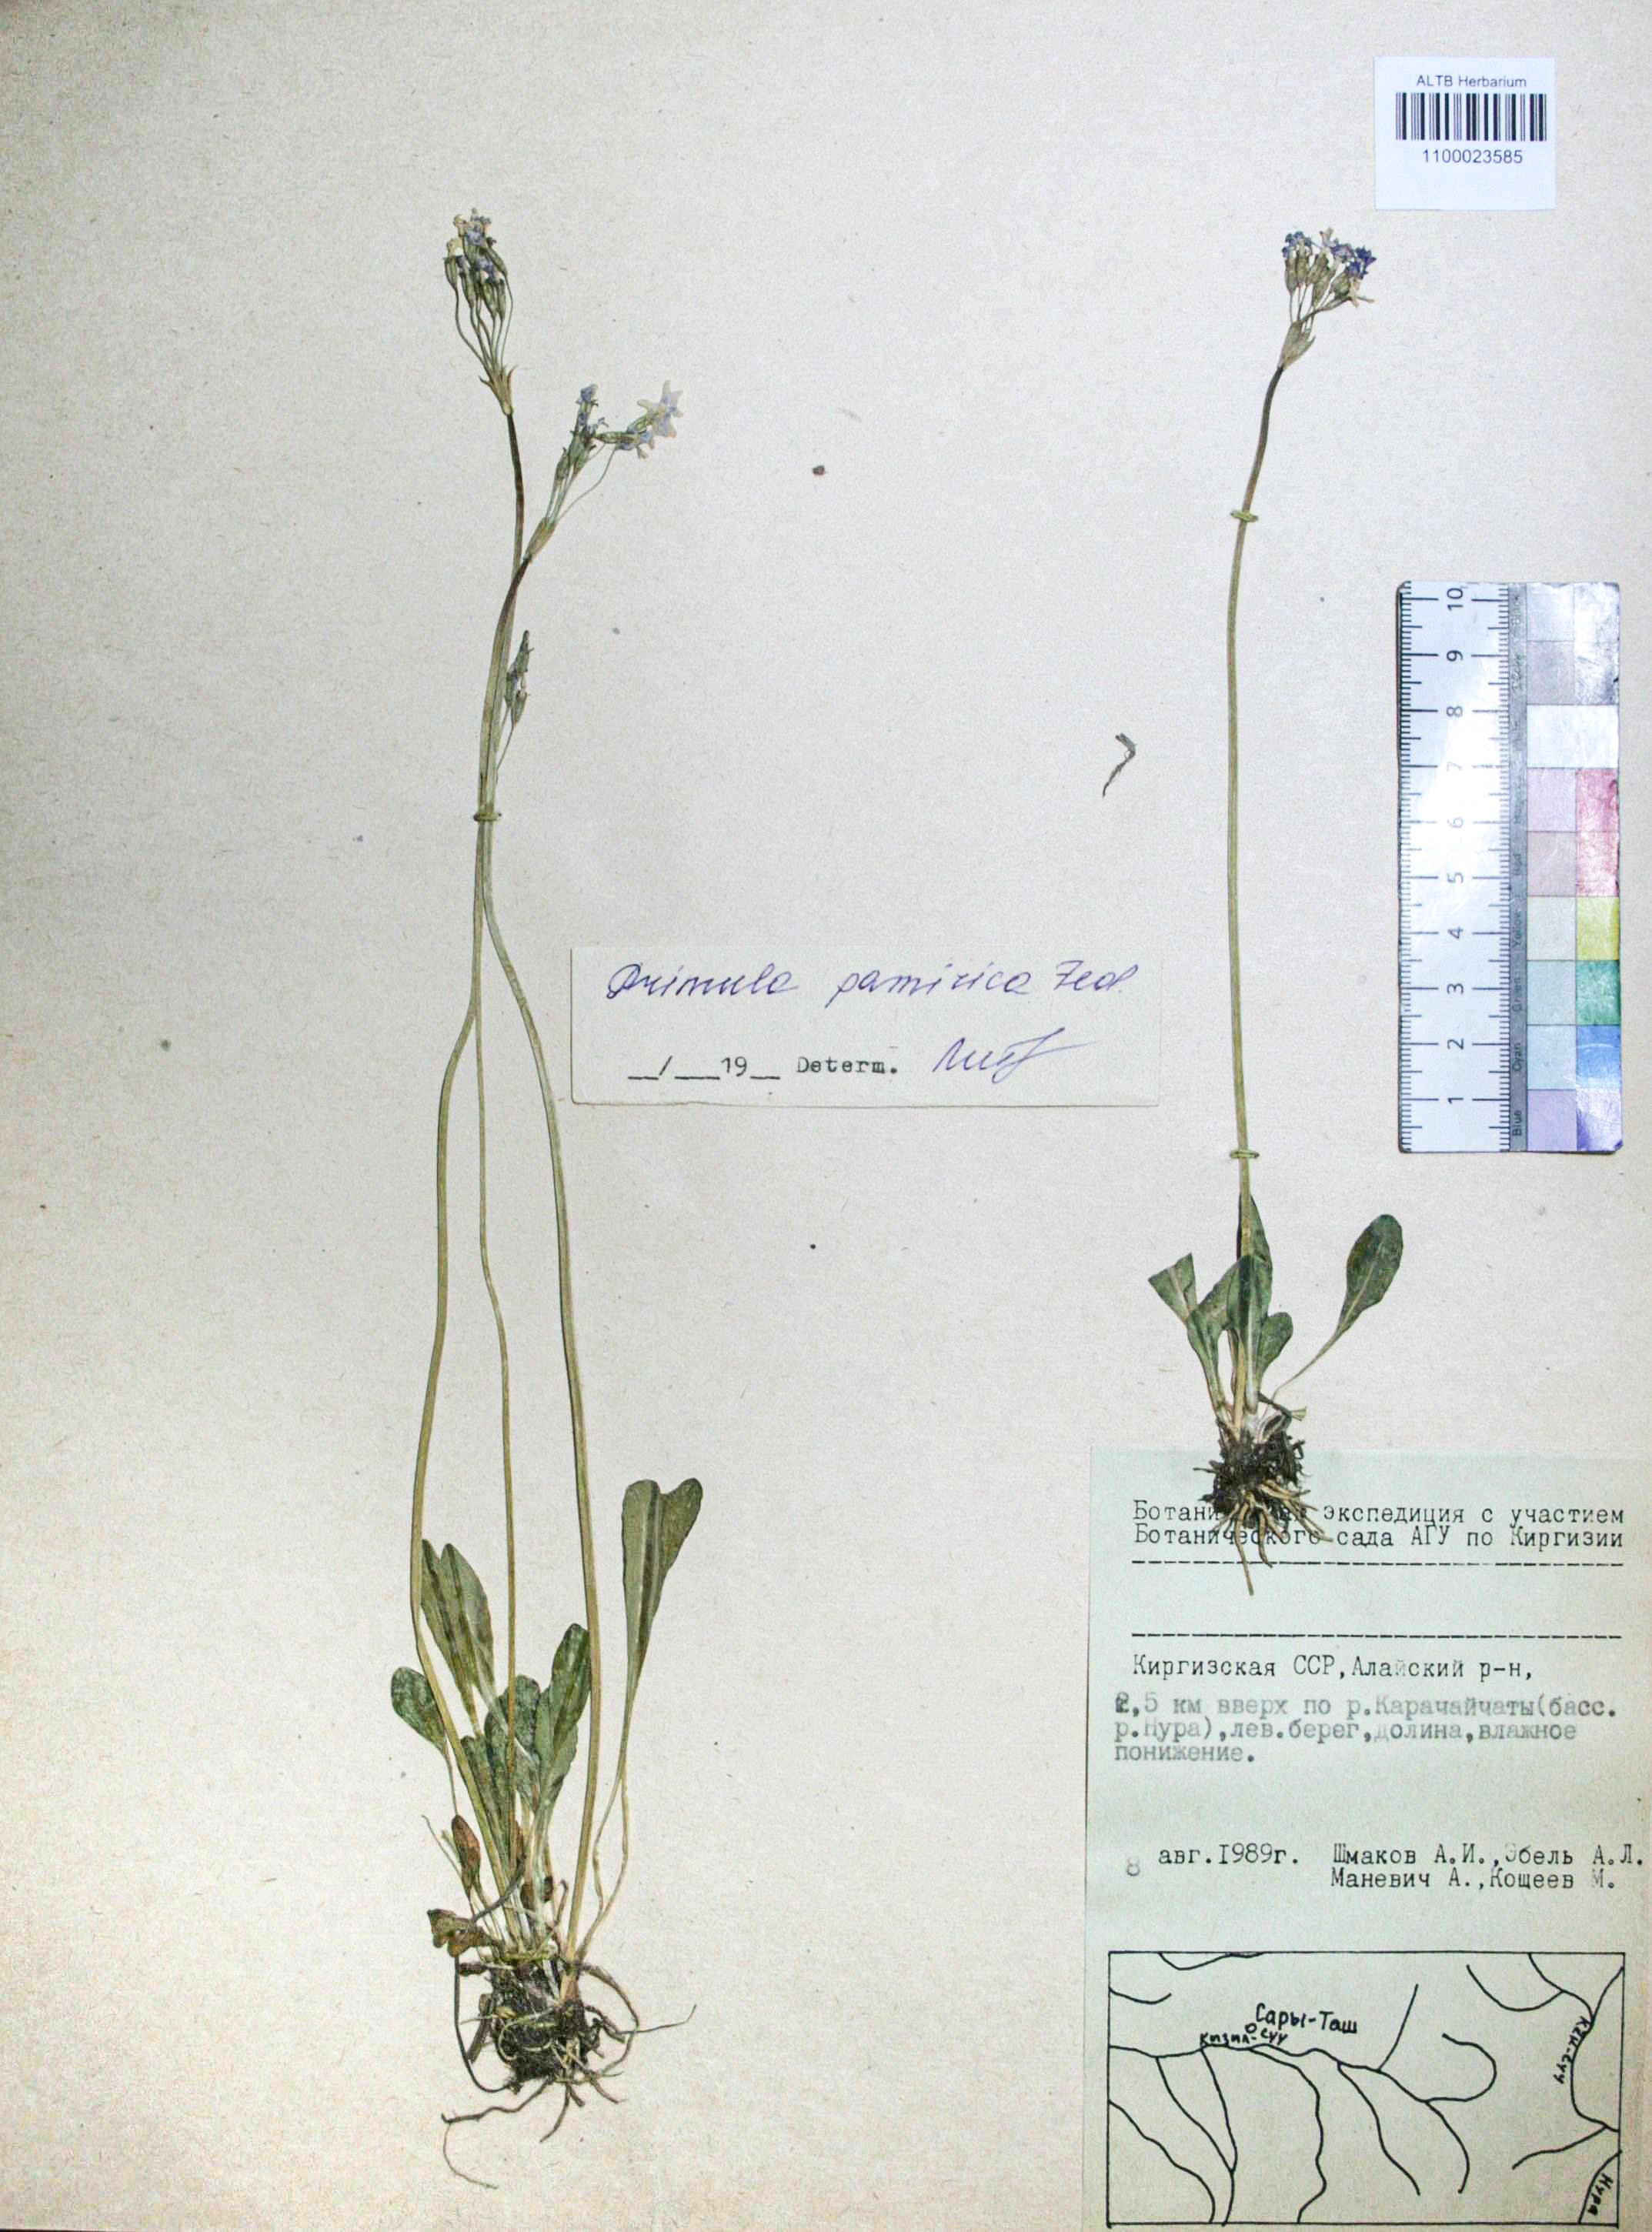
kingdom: Plantae
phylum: Tracheophyta
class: Magnoliopsida
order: Ericales
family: Primulaceae
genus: Primula
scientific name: Primula pamirica
